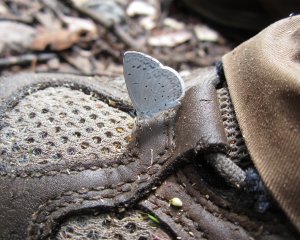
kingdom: Animalia
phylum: Arthropoda
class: Insecta
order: Lepidoptera
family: Lycaenidae
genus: Celastrina
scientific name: Celastrina
